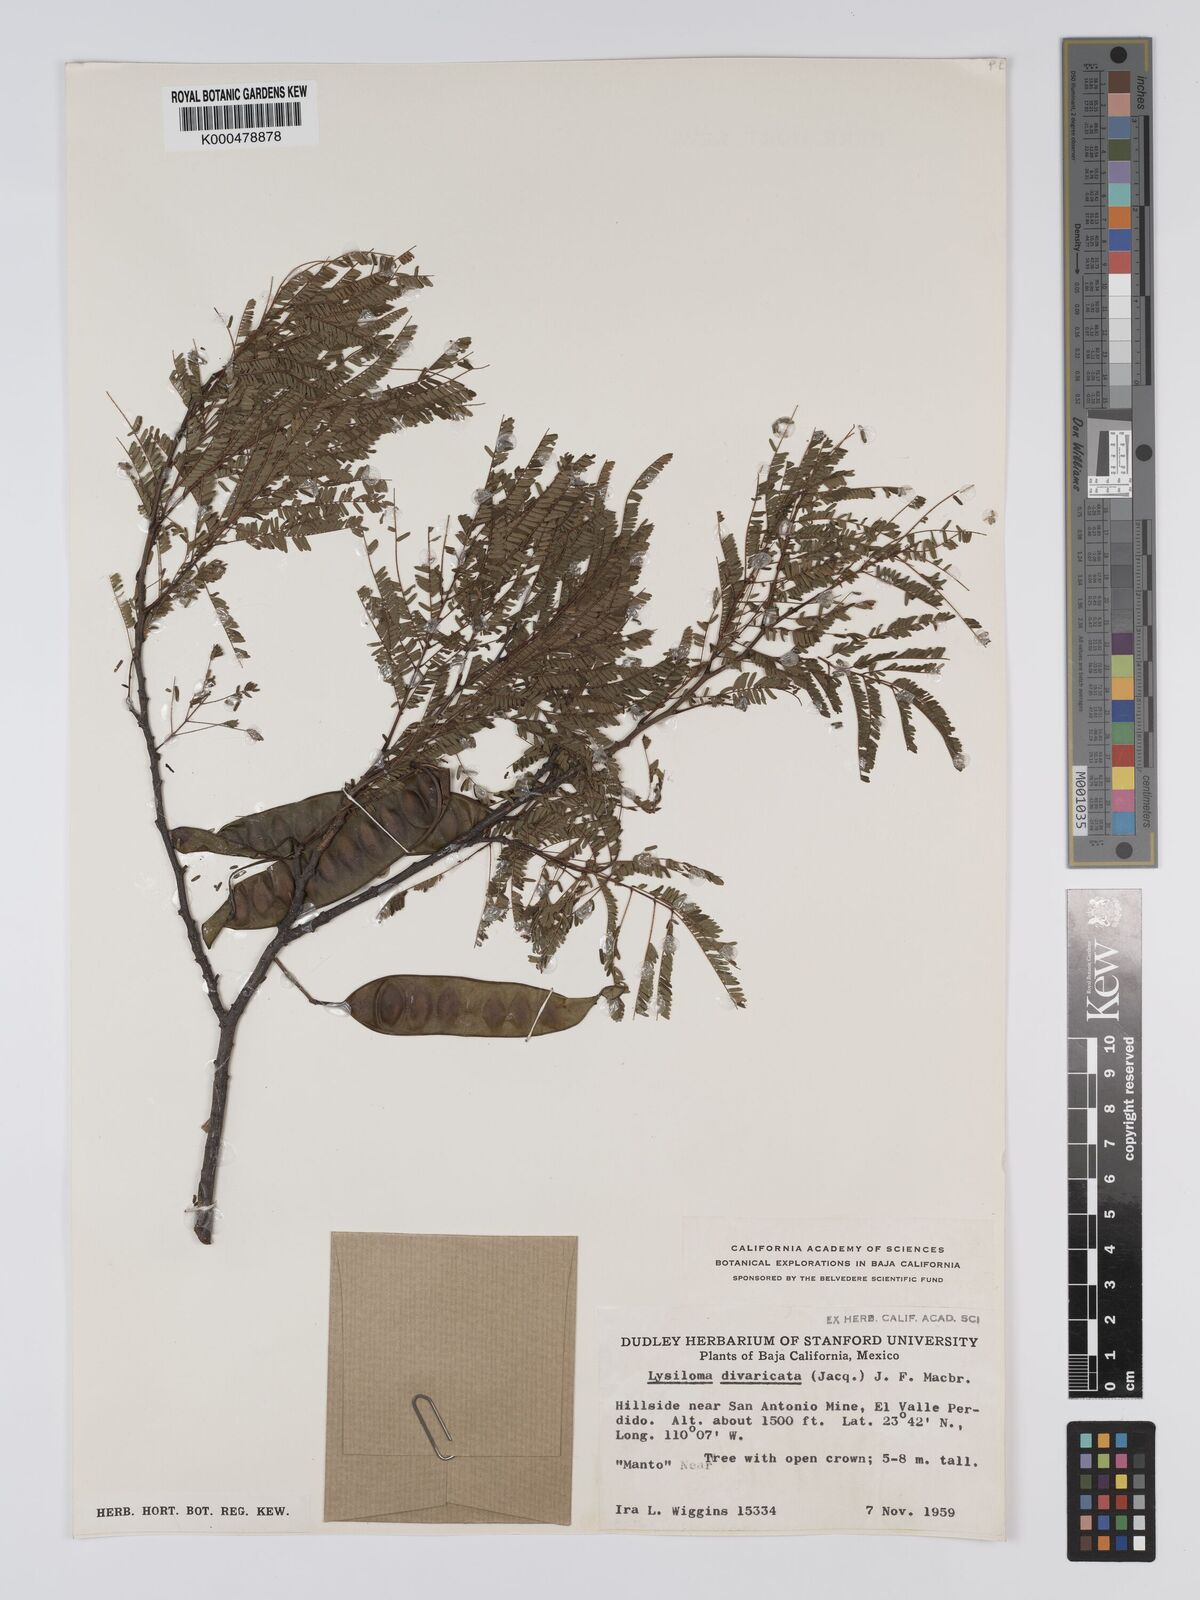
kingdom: Plantae
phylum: Tracheophyta
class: Magnoliopsida
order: Fabales
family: Fabaceae
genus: Lysiloma
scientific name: Lysiloma divaricatum
